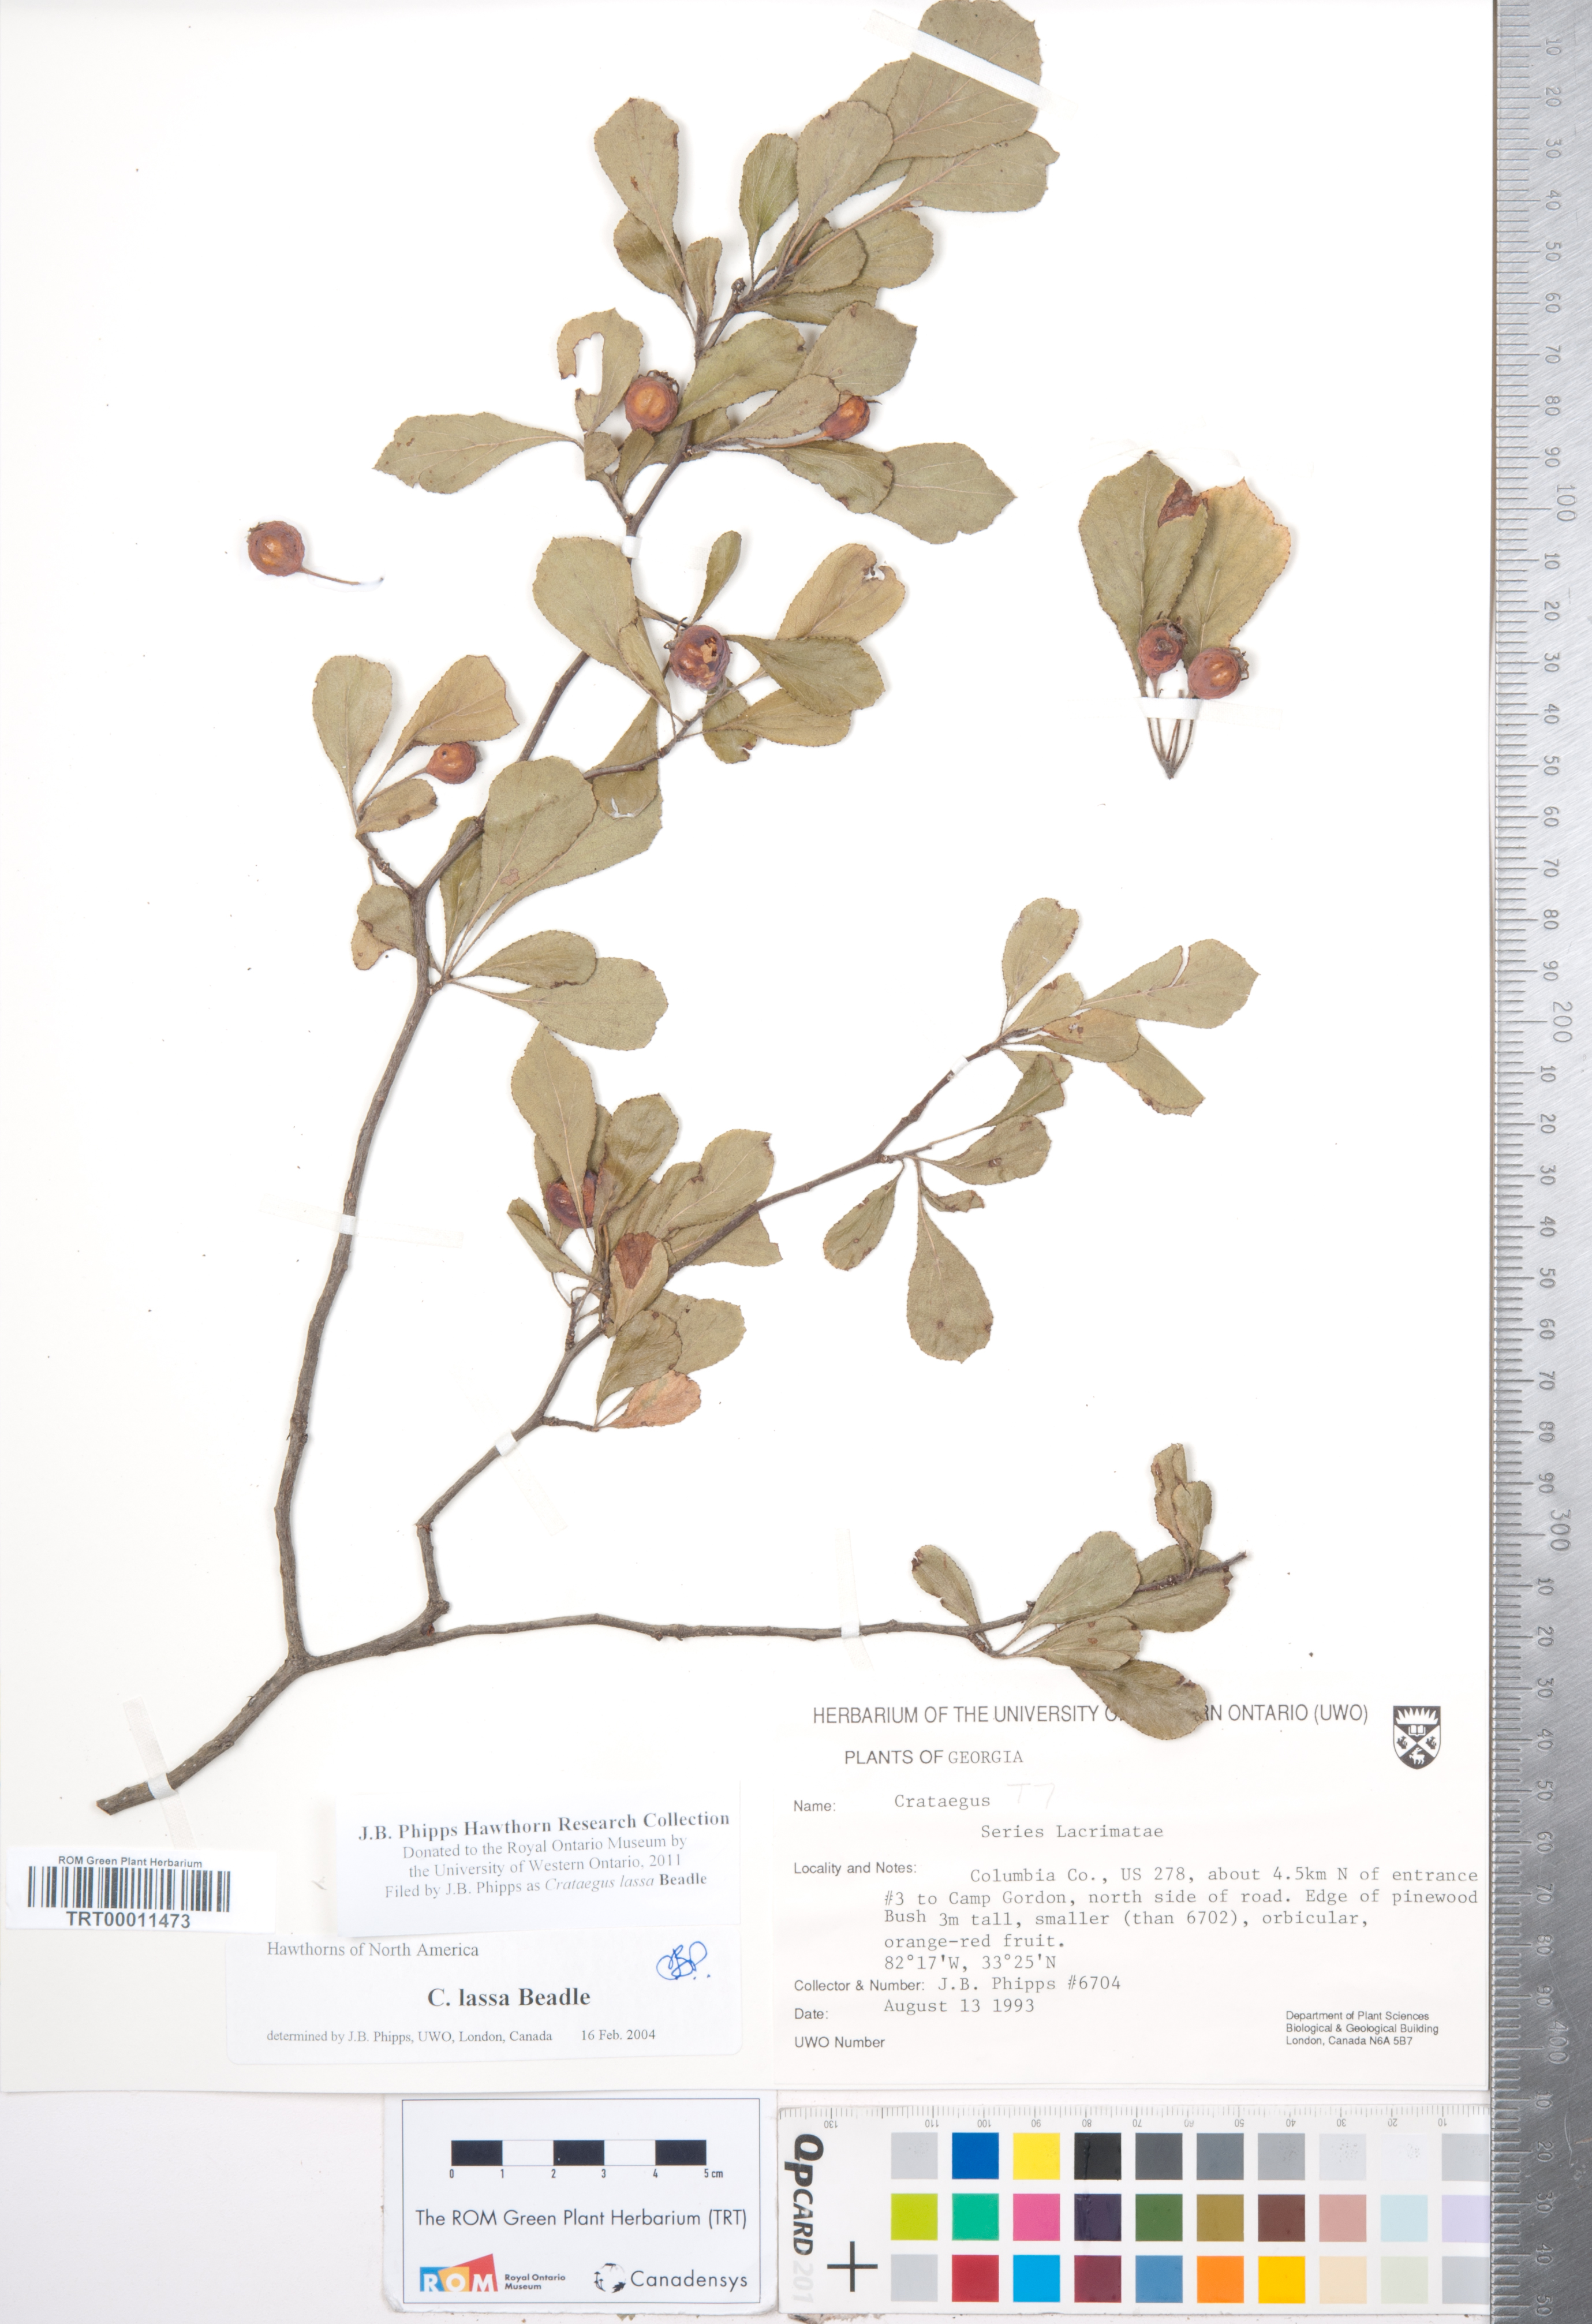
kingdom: Plantae
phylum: Tracheophyta
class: Magnoliopsida
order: Rosales
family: Rosaceae
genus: Crataegus
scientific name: Crataegus lassa
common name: Florida hawthorn
